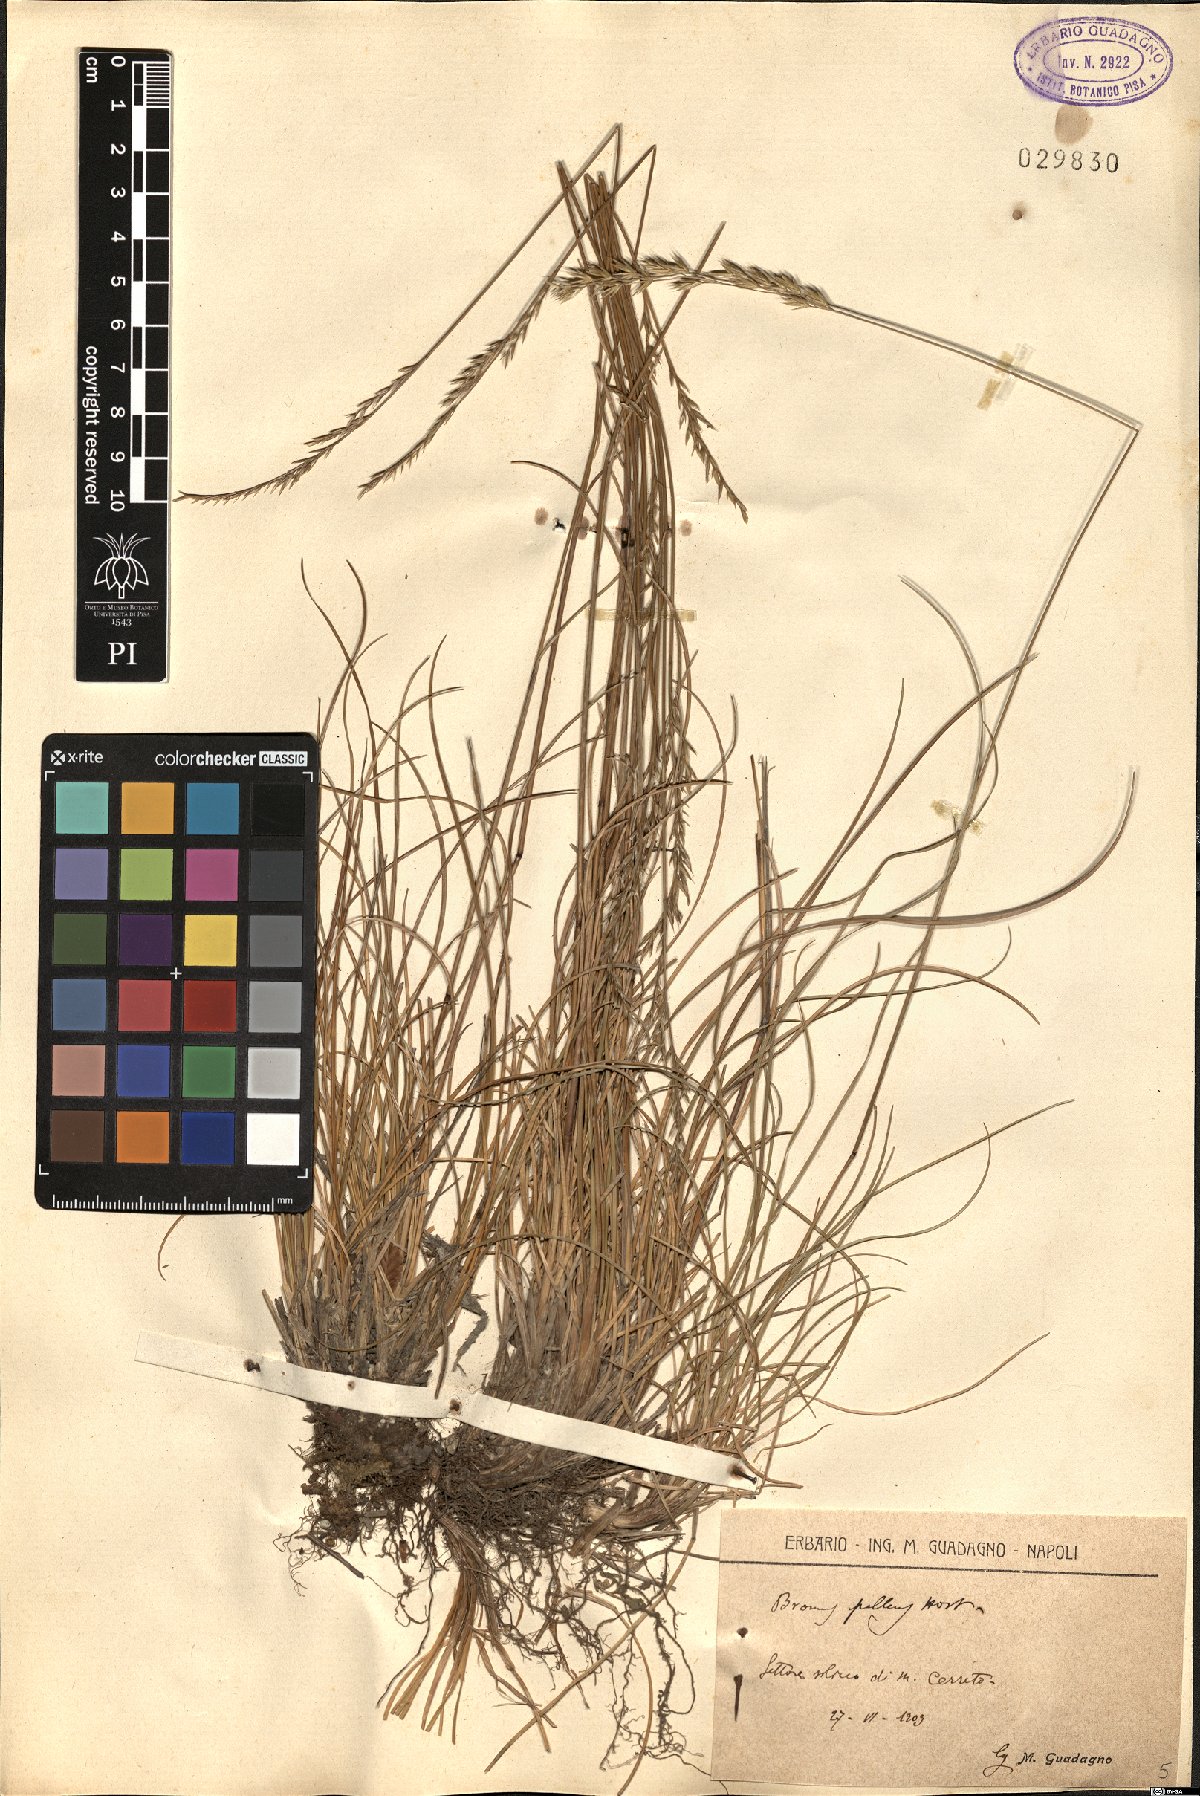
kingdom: Plantae
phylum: Tracheophyta
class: Liliopsida
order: Poales
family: Poaceae
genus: Festuca
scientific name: Festuca circummediterranea
